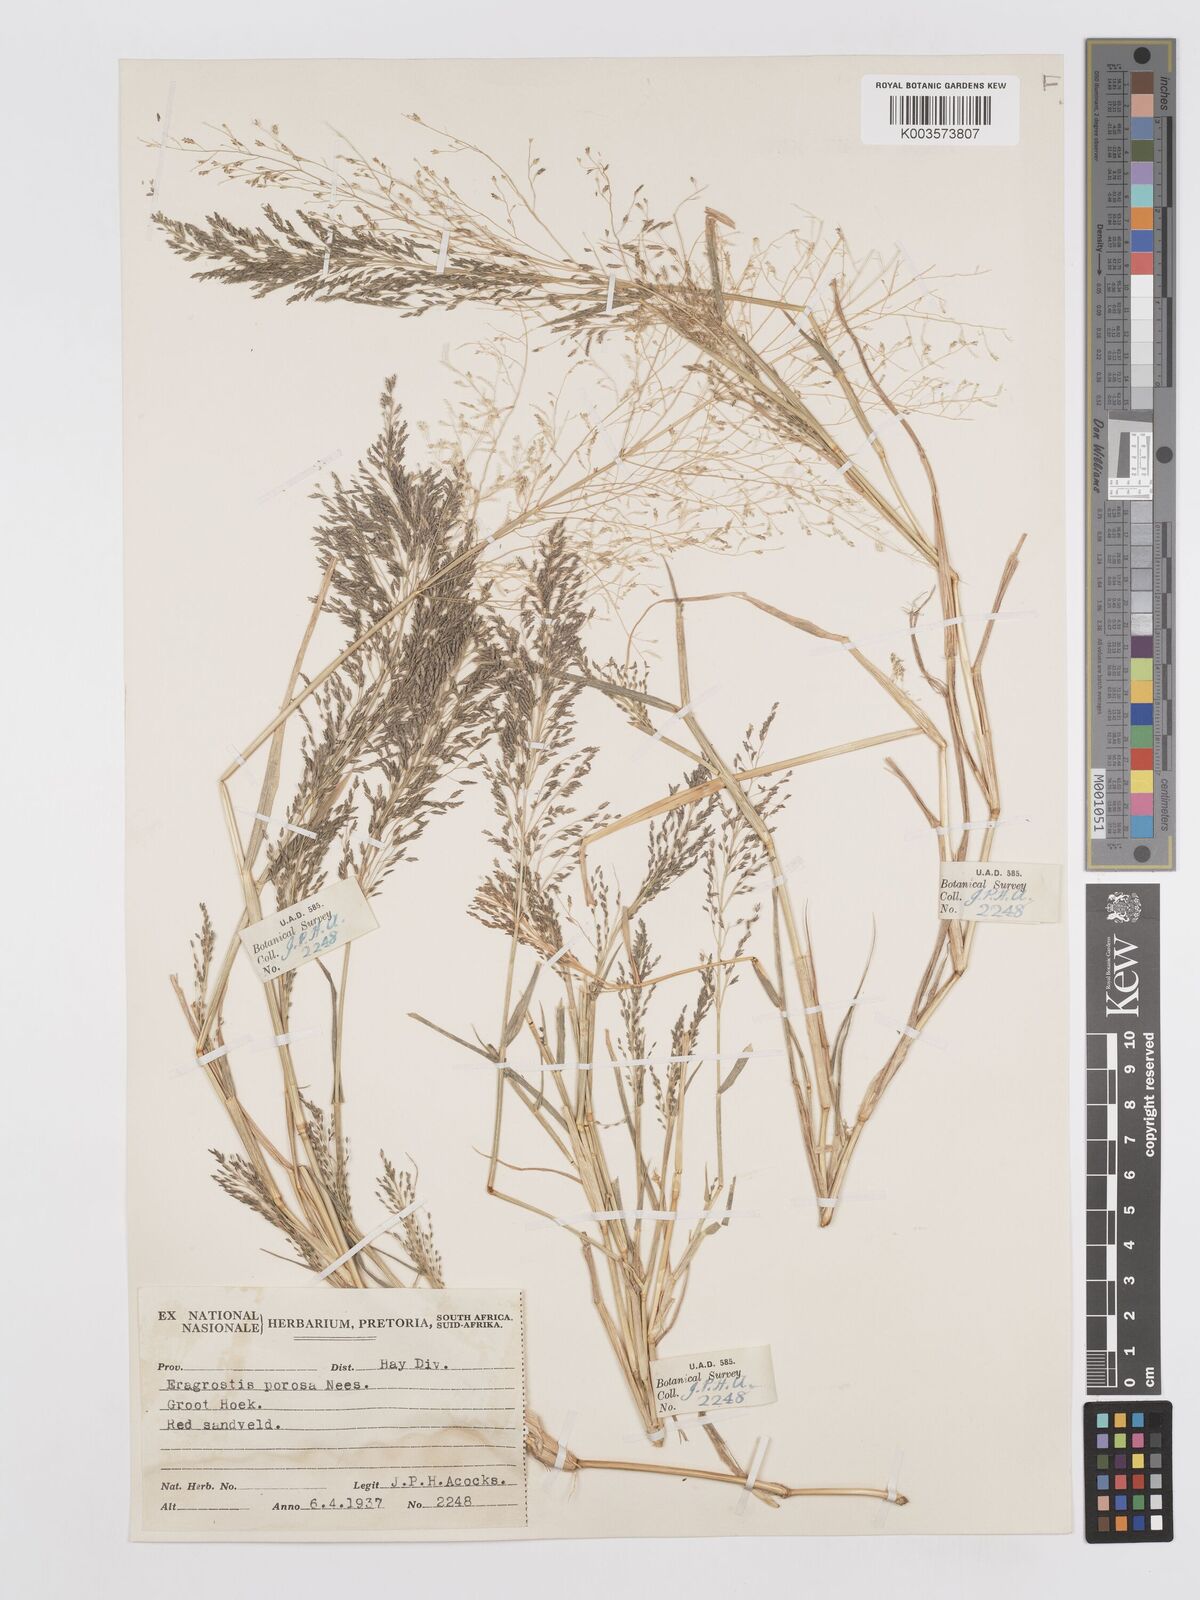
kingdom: Plantae
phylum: Tracheophyta
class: Liliopsida
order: Poales
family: Poaceae
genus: Eragrostis
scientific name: Eragrostis porosa
